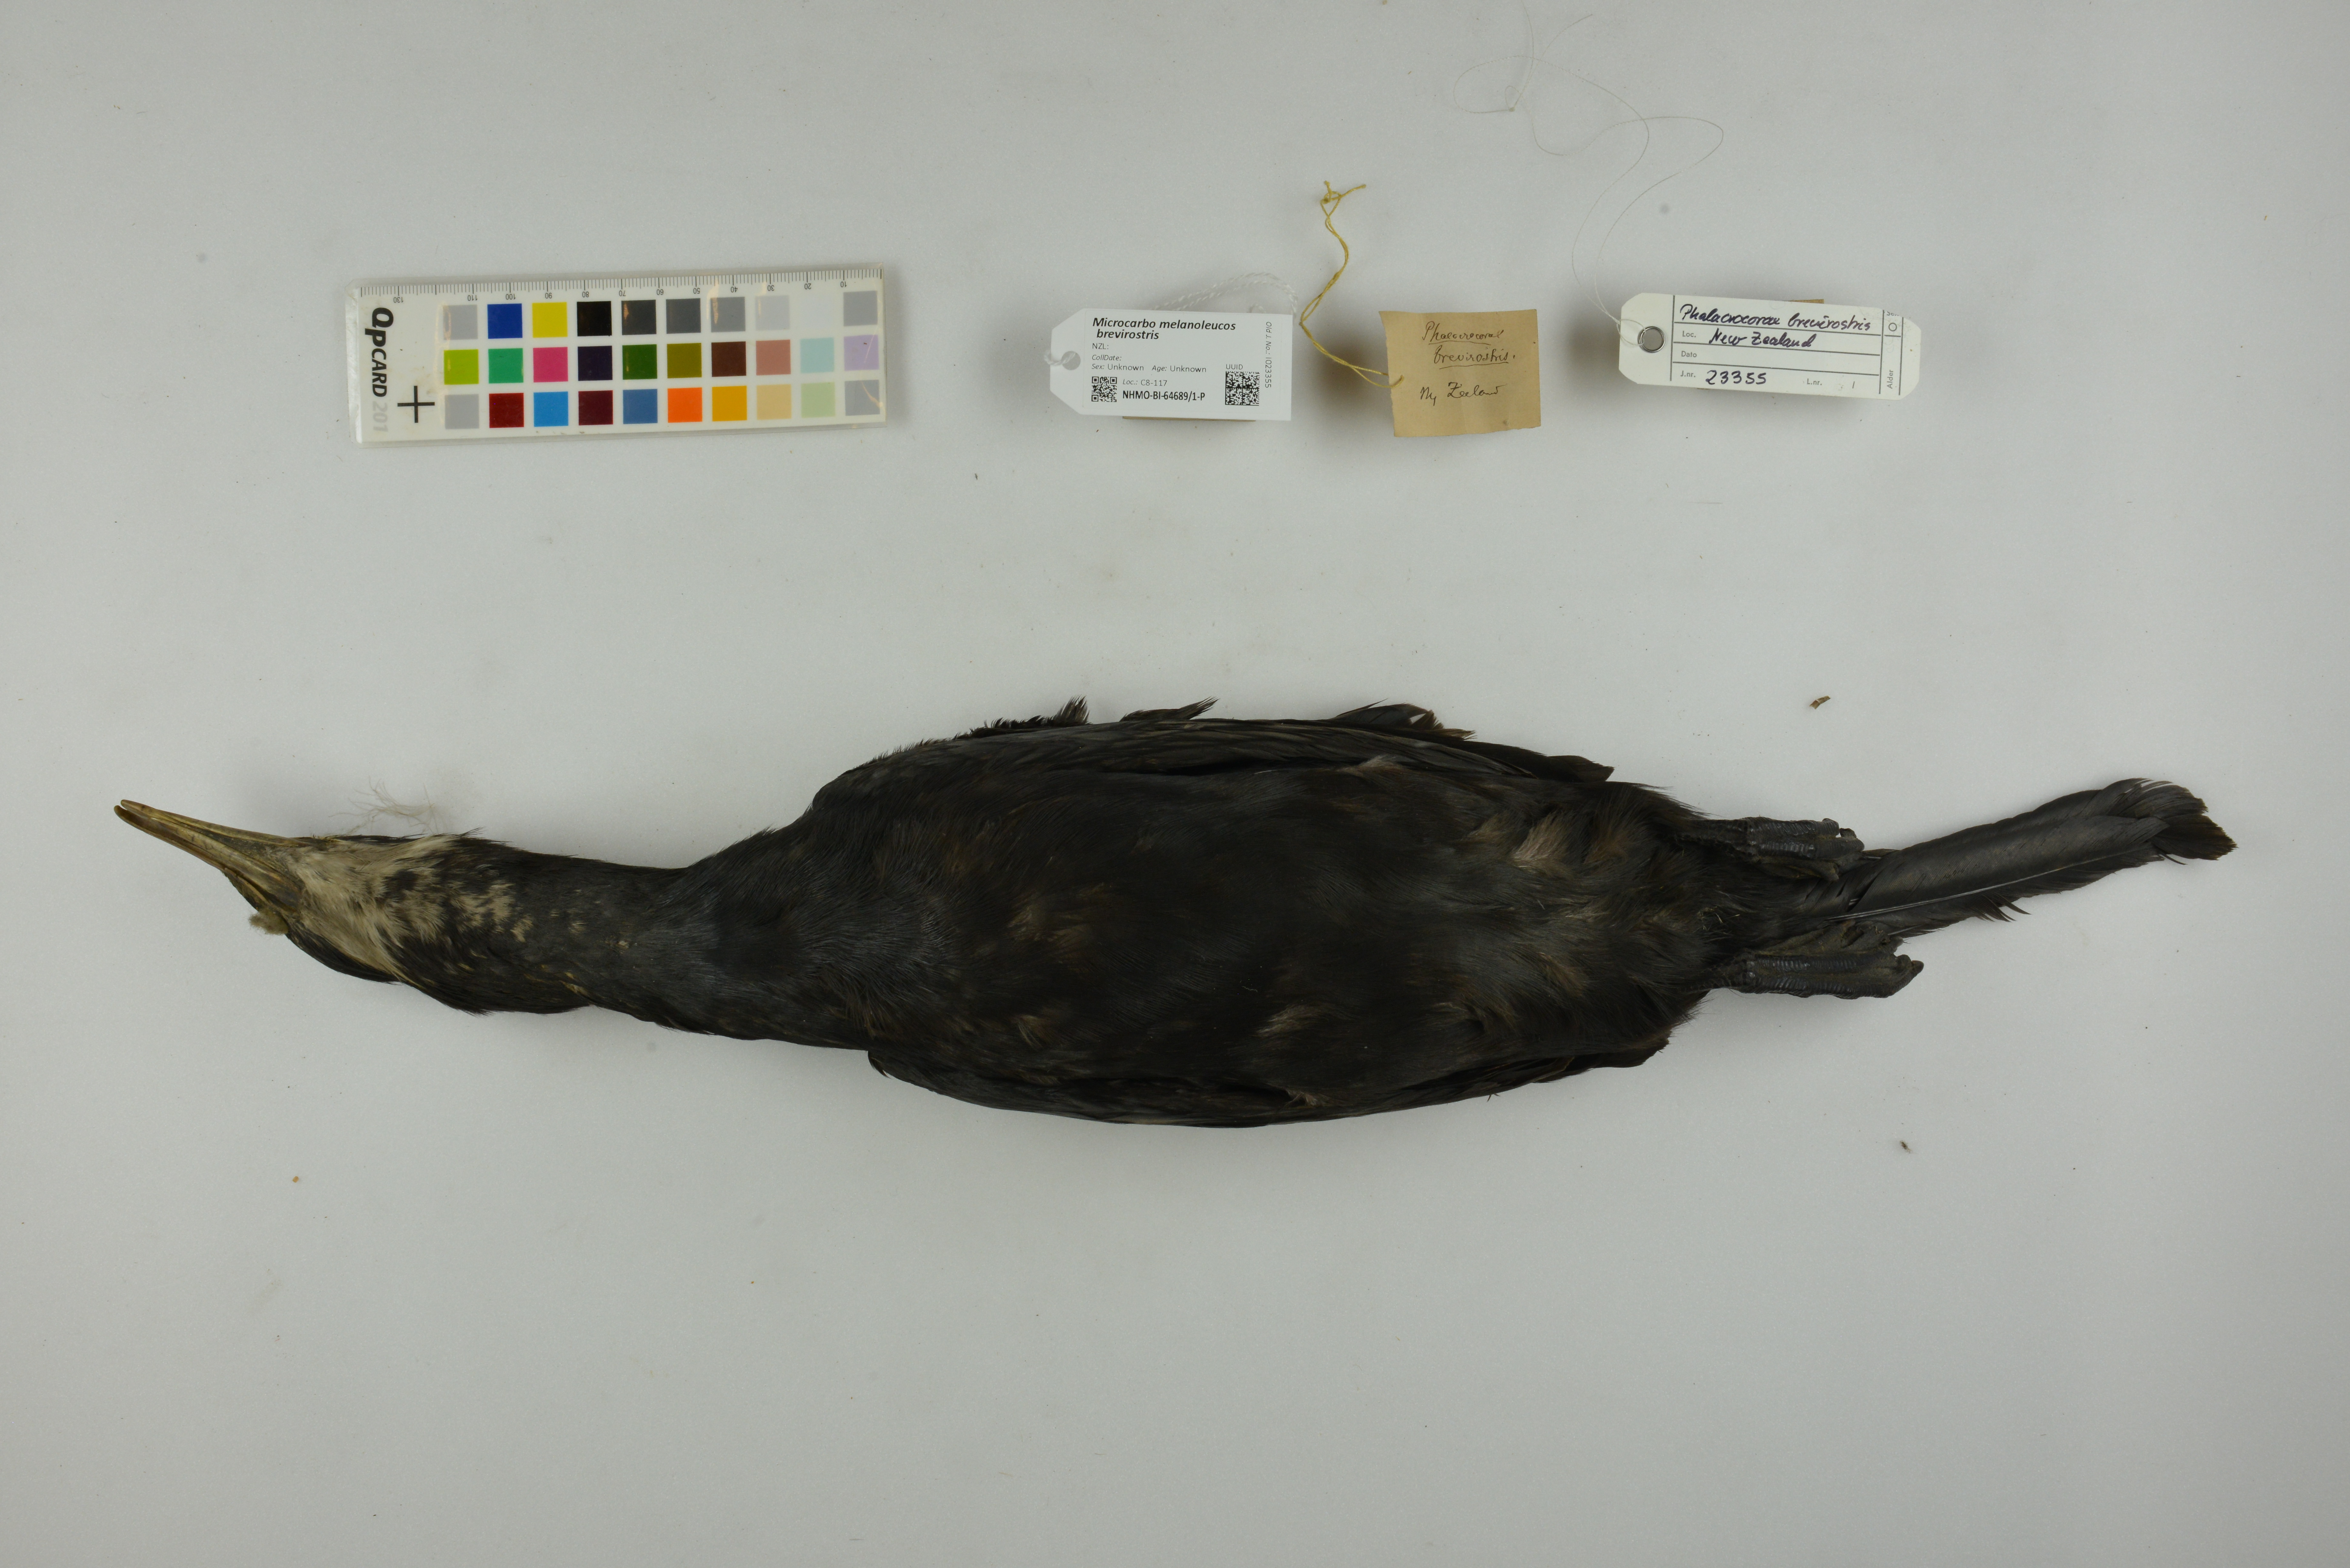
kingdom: Animalia
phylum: Chordata
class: Aves
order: Suliformes
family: Phalacrocoracidae
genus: Microcarbo
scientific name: Microcarbo melanoleucos
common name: Little pied cormorant
